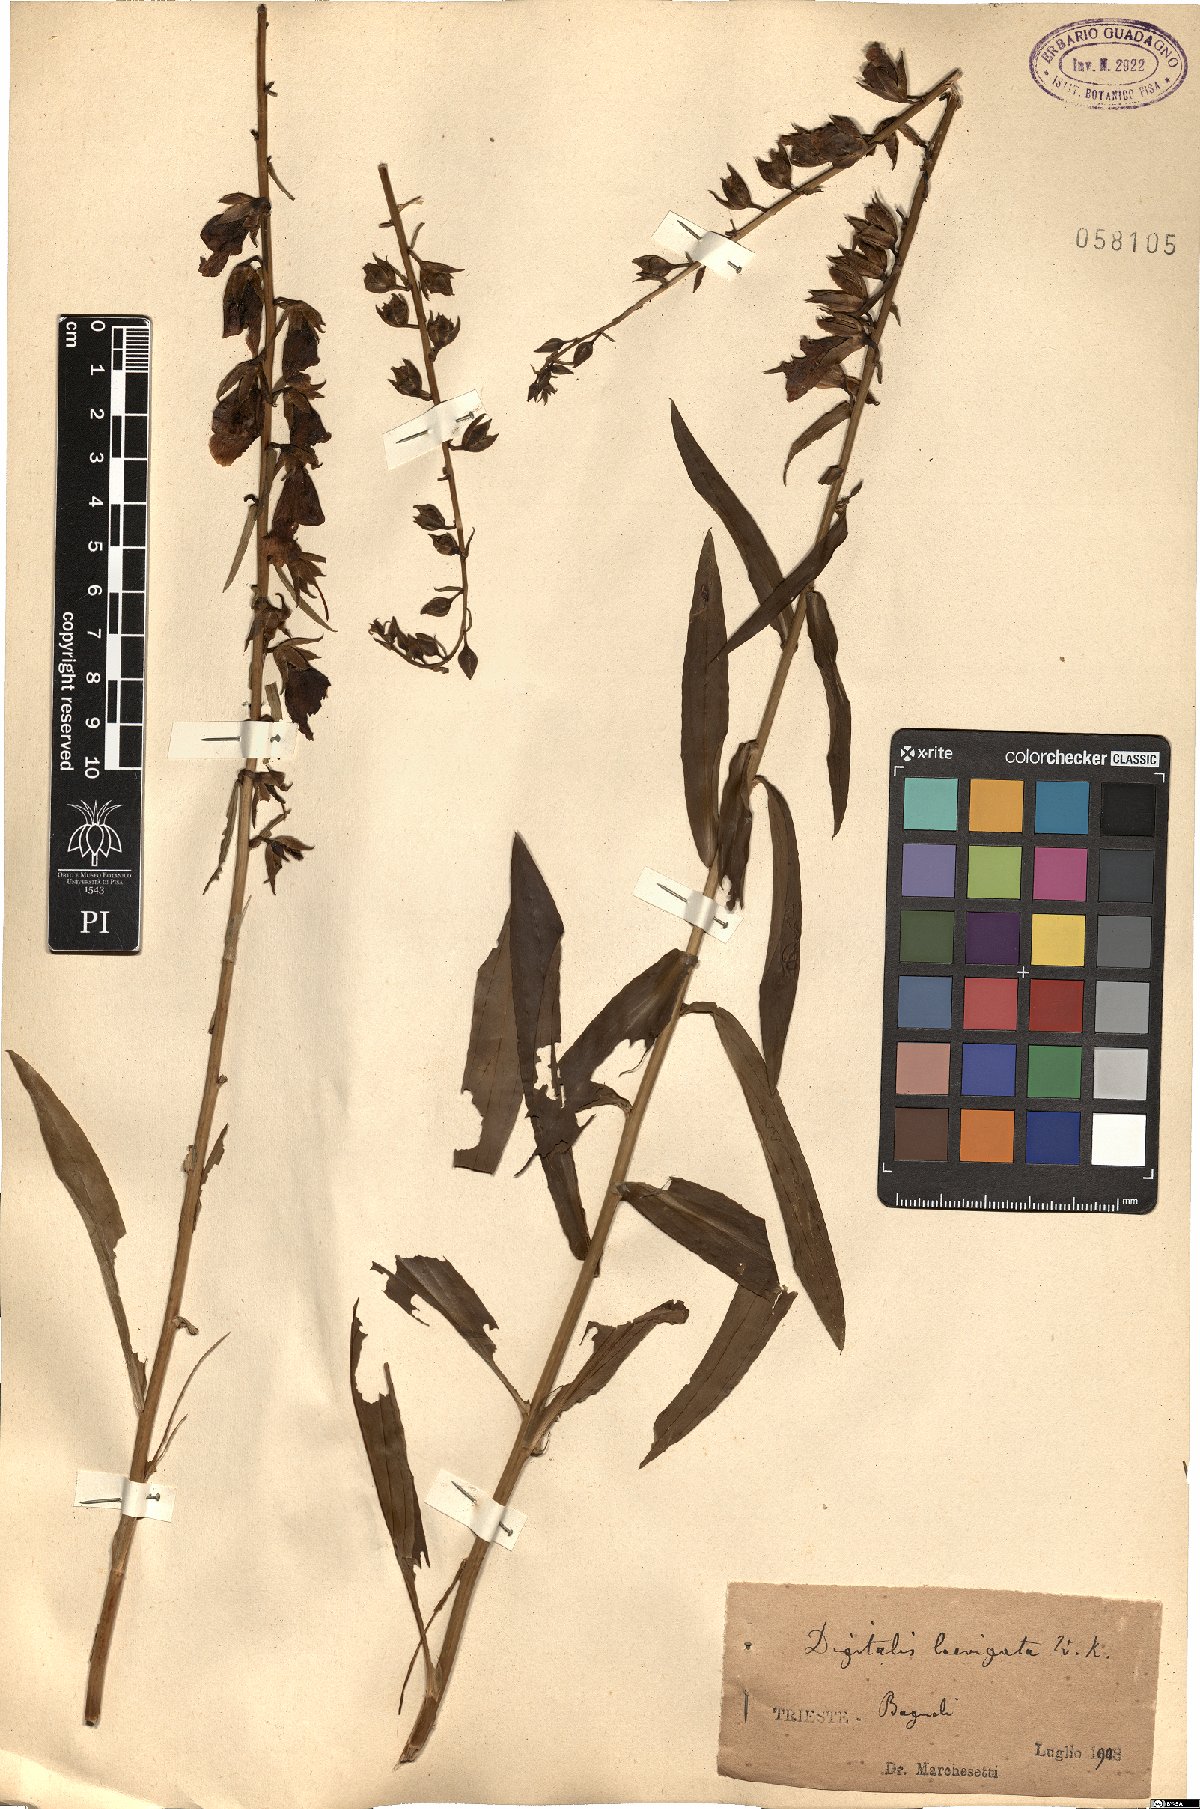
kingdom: Plantae
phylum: Tracheophyta
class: Magnoliopsida
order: Lamiales
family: Plantaginaceae
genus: Digitalis
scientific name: Digitalis laevigata
